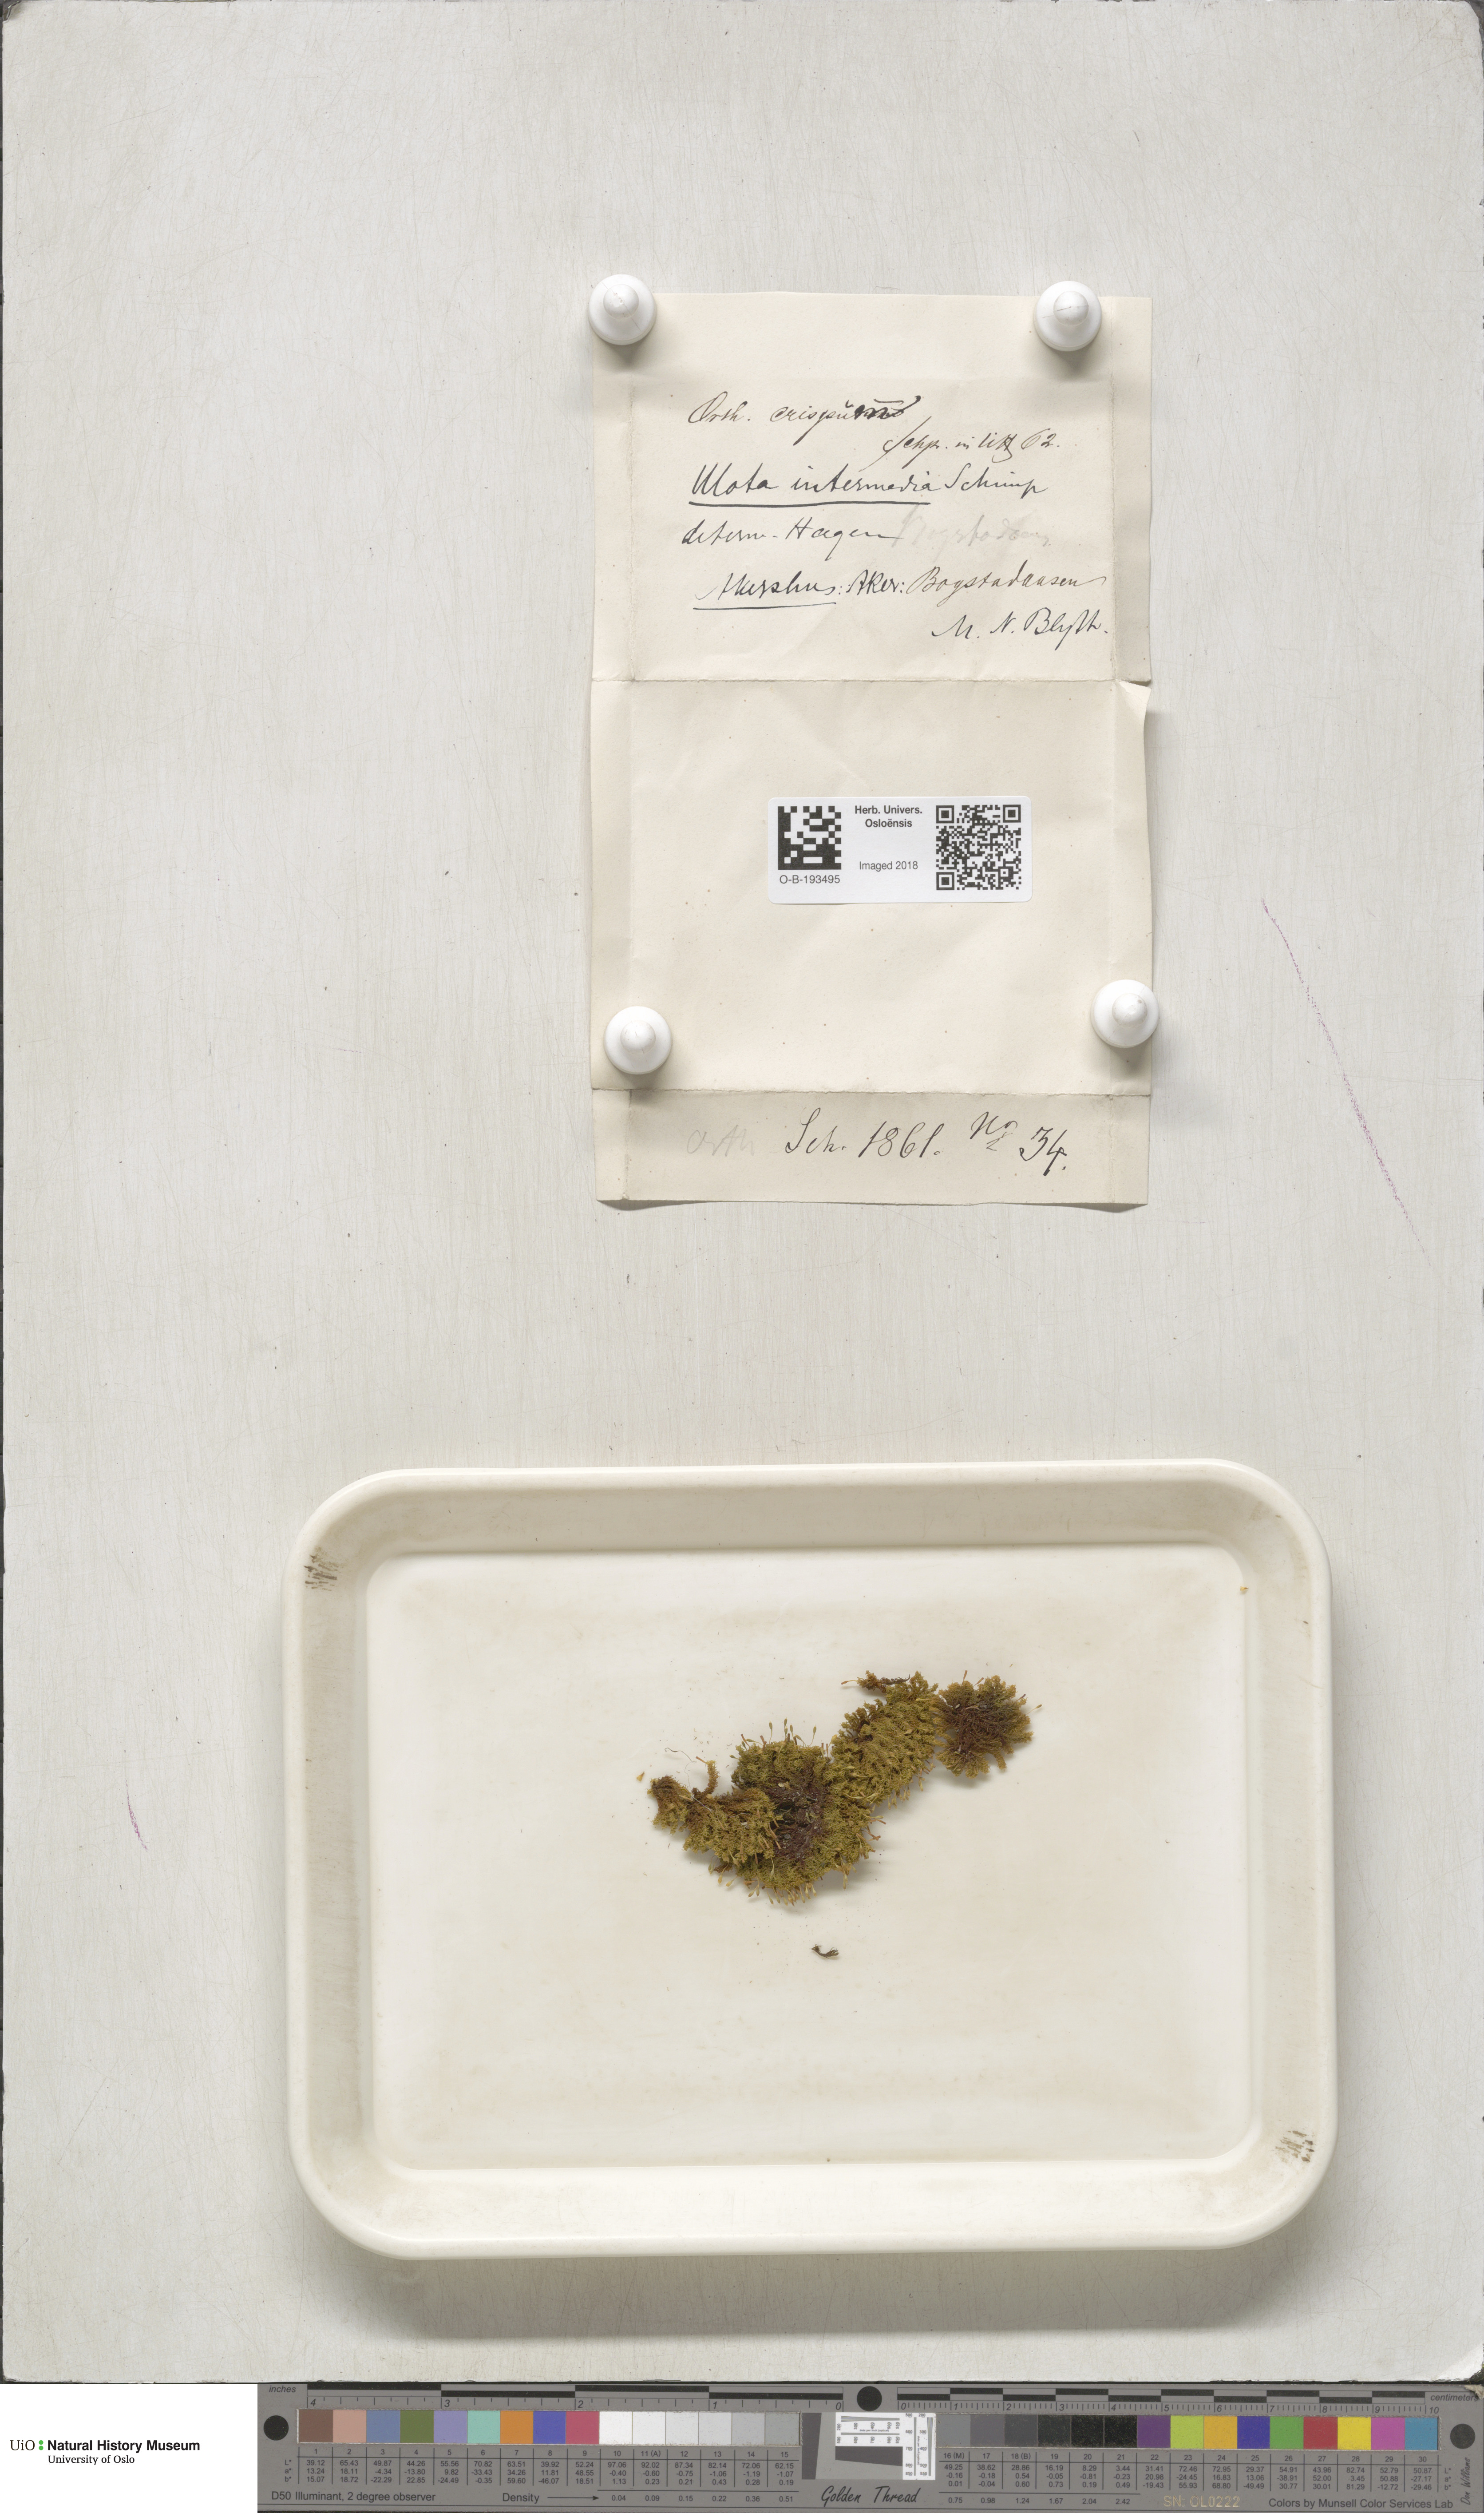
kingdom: Plantae
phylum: Bryophyta
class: Bryopsida
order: Orthotrichales
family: Orthotrichaceae
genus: Ulota
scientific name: Ulota crispa
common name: Crisped pincushion moss
